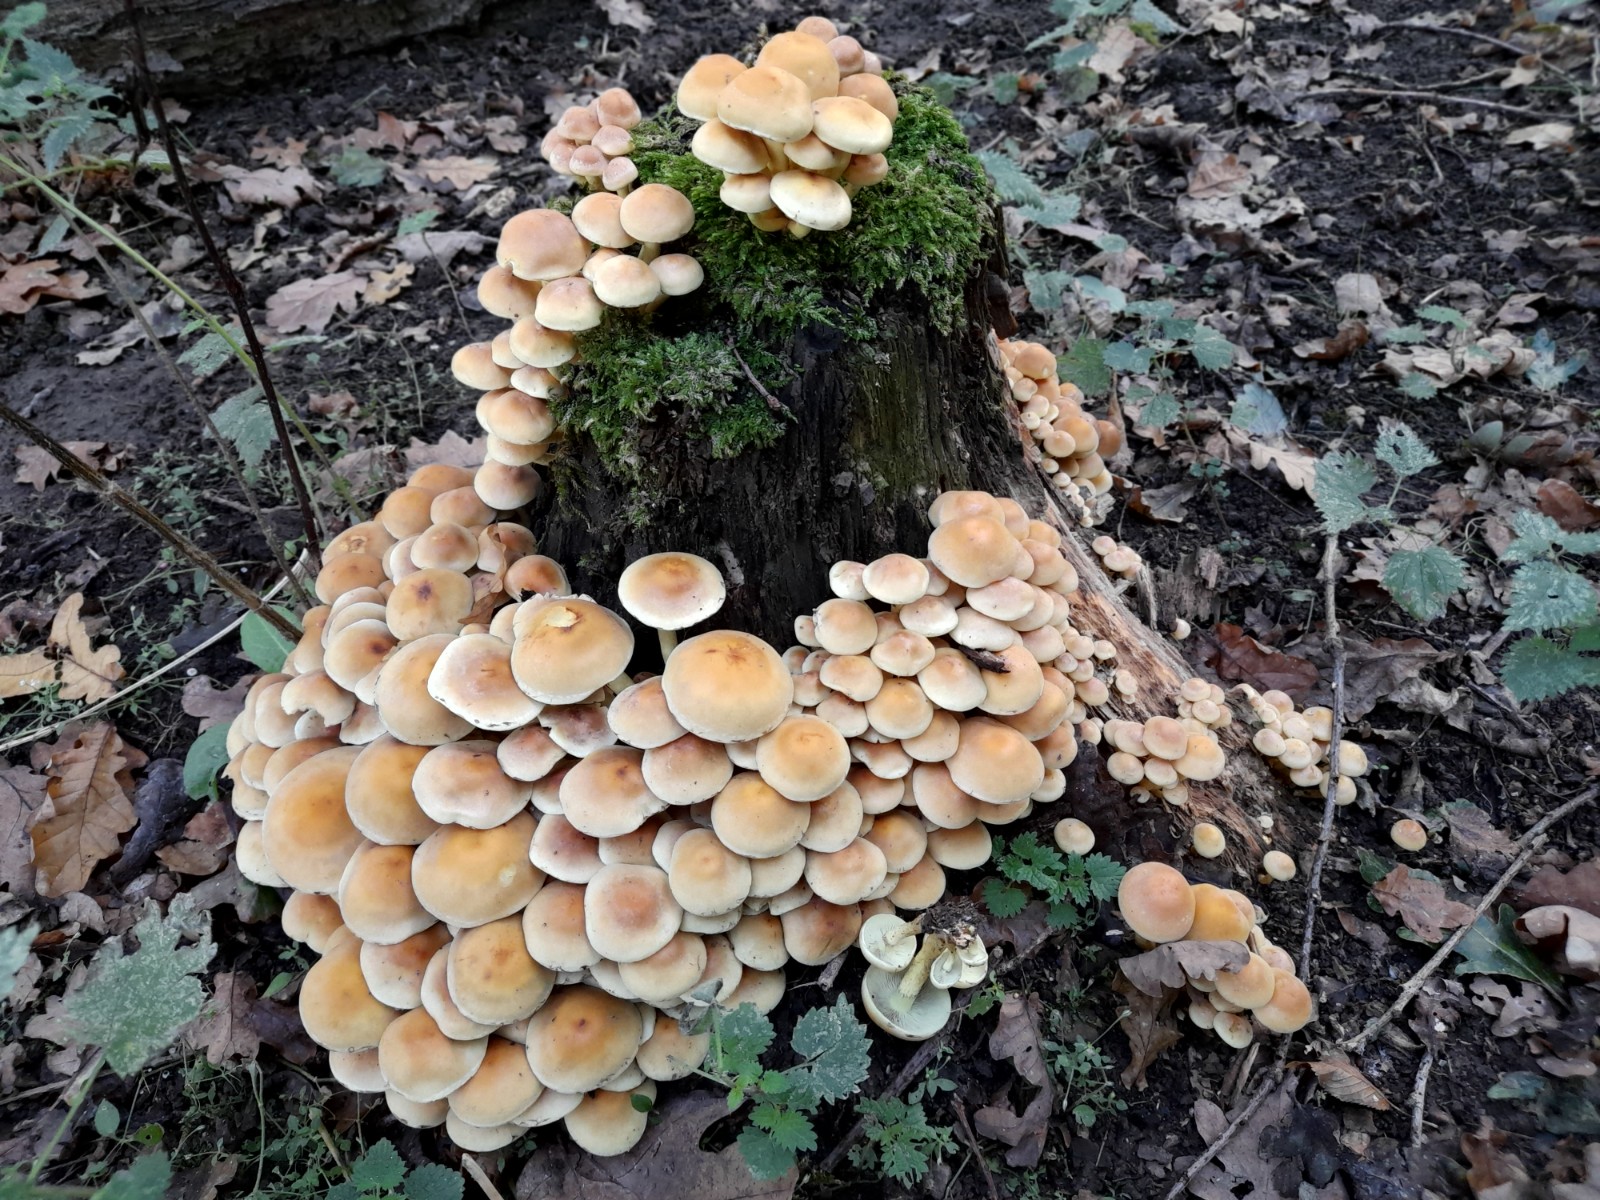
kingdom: Fungi
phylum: Basidiomycota
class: Agaricomycetes
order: Agaricales
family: Strophariaceae
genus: Hypholoma
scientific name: Hypholoma fasciculare
